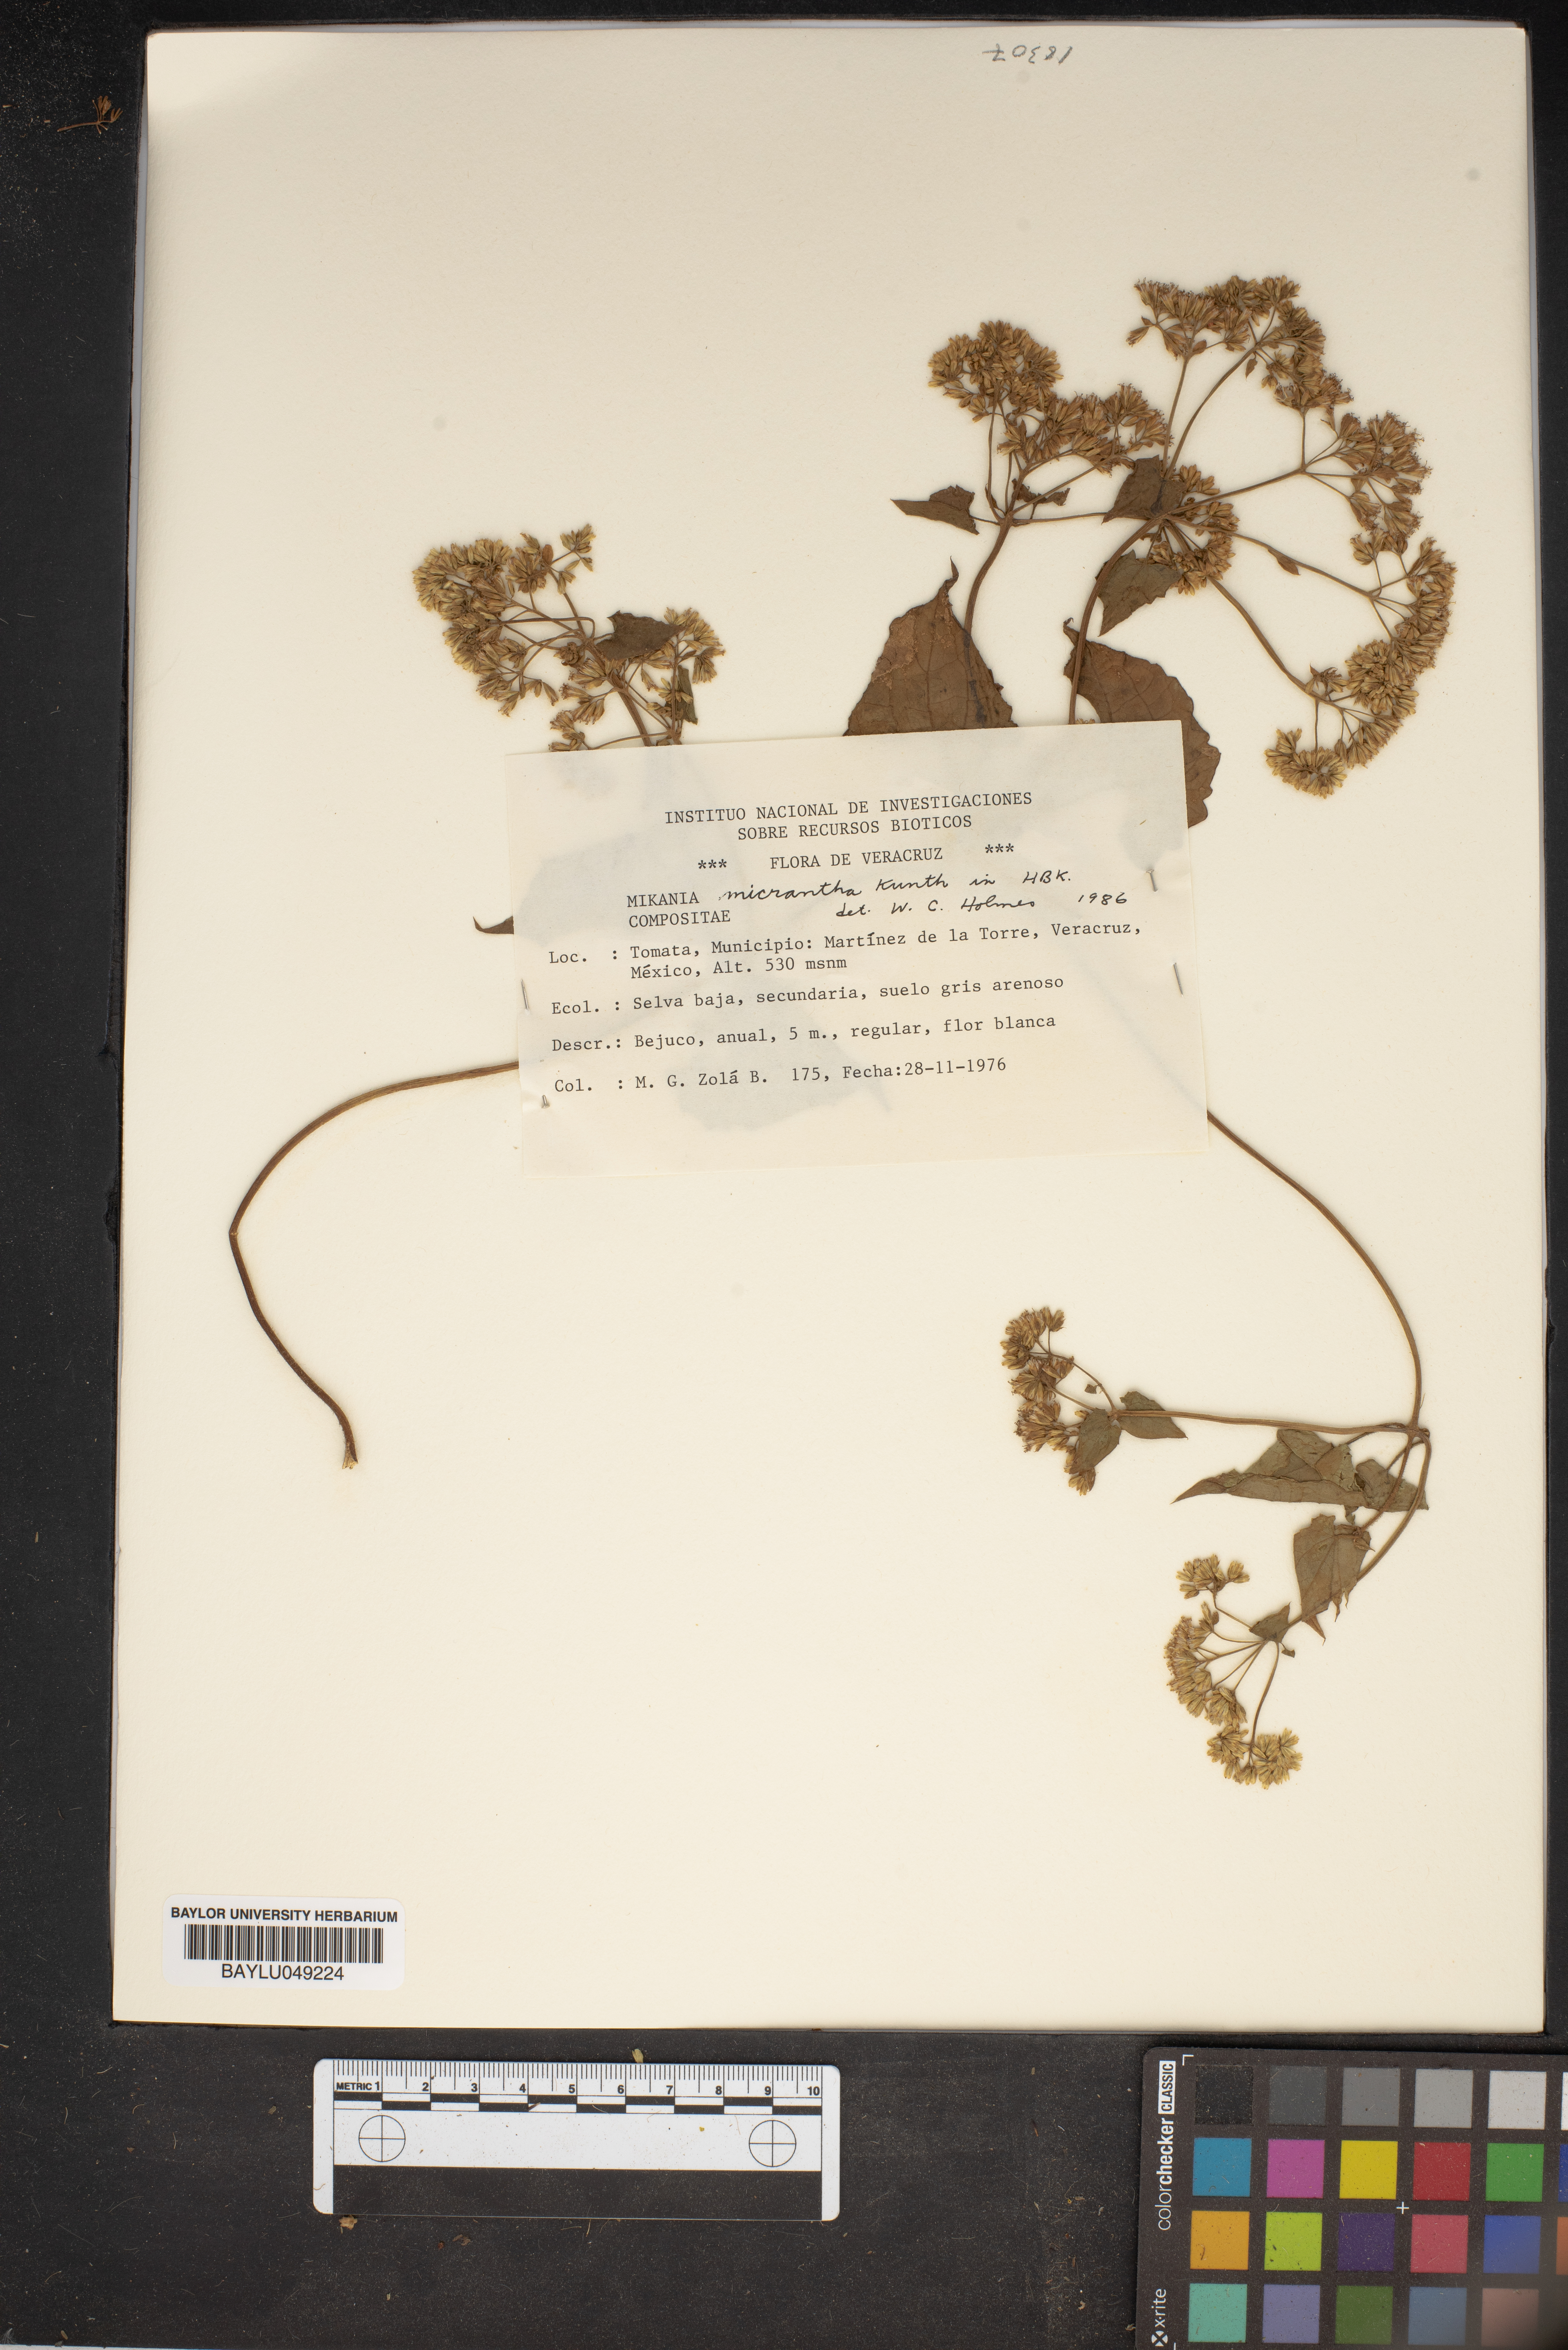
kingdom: Plantae
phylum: Tracheophyta
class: Magnoliopsida
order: Asterales
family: Asteraceae
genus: Mikania
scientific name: Mikania micrantha
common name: Mile-a-minute
